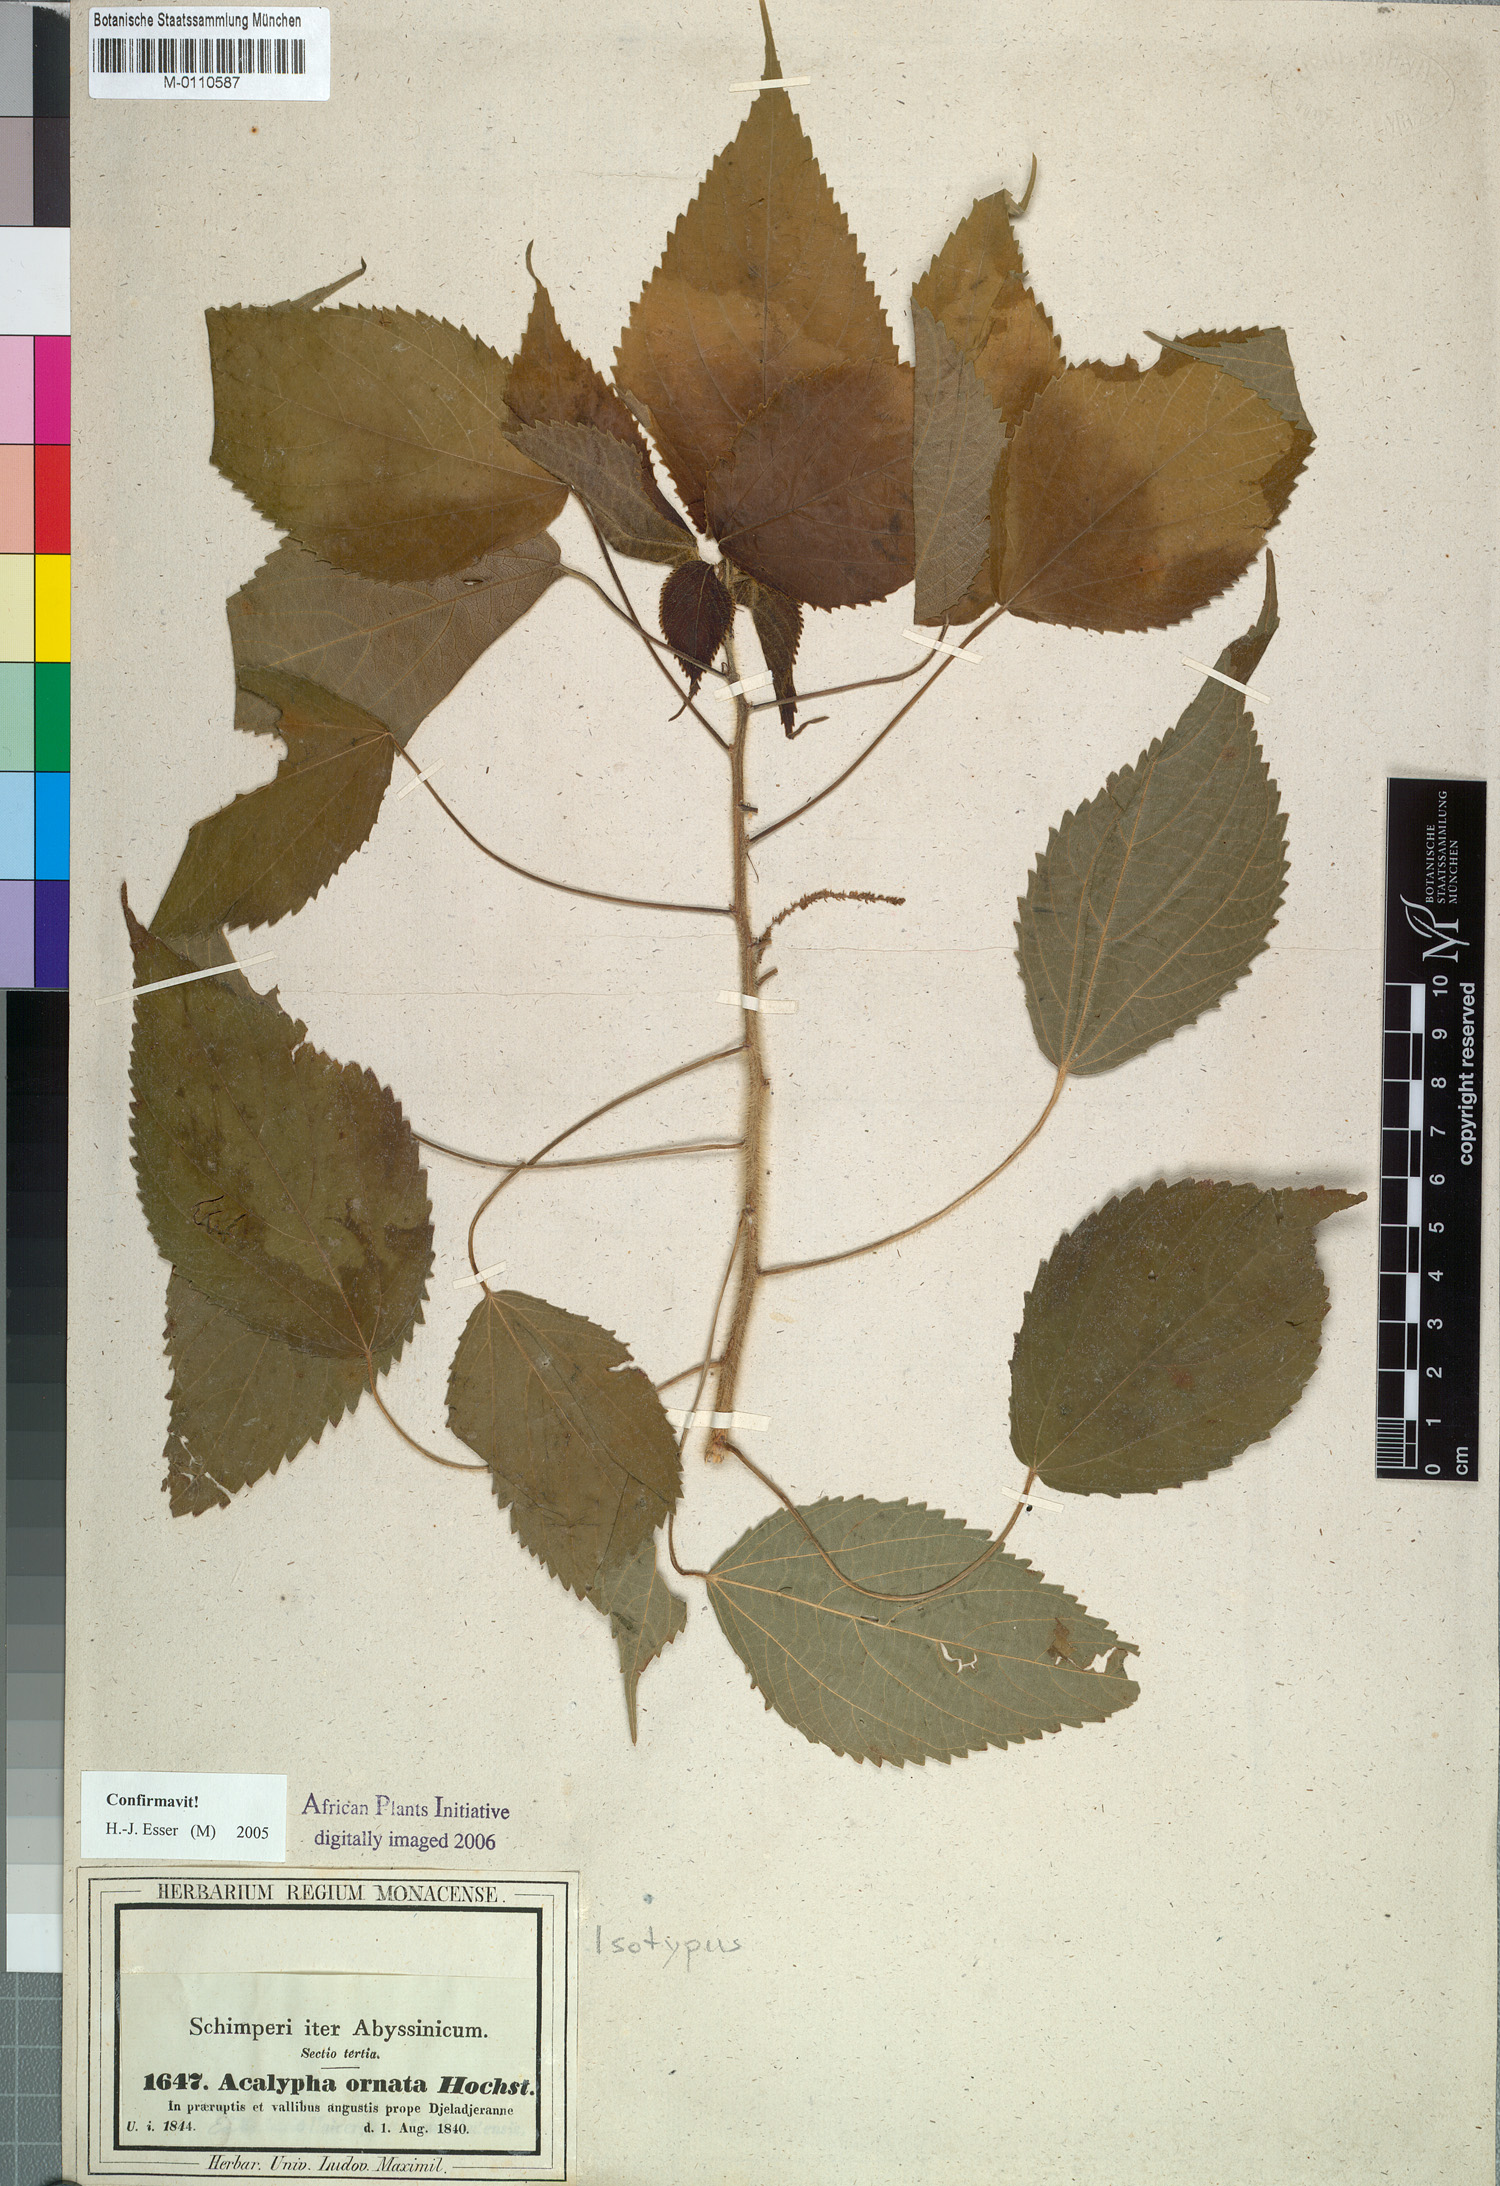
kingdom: Plantae
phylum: Tracheophyta
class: Magnoliopsida
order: Malpighiales
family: Euphorbiaceae
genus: Acalypha
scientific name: Acalypha ornata
